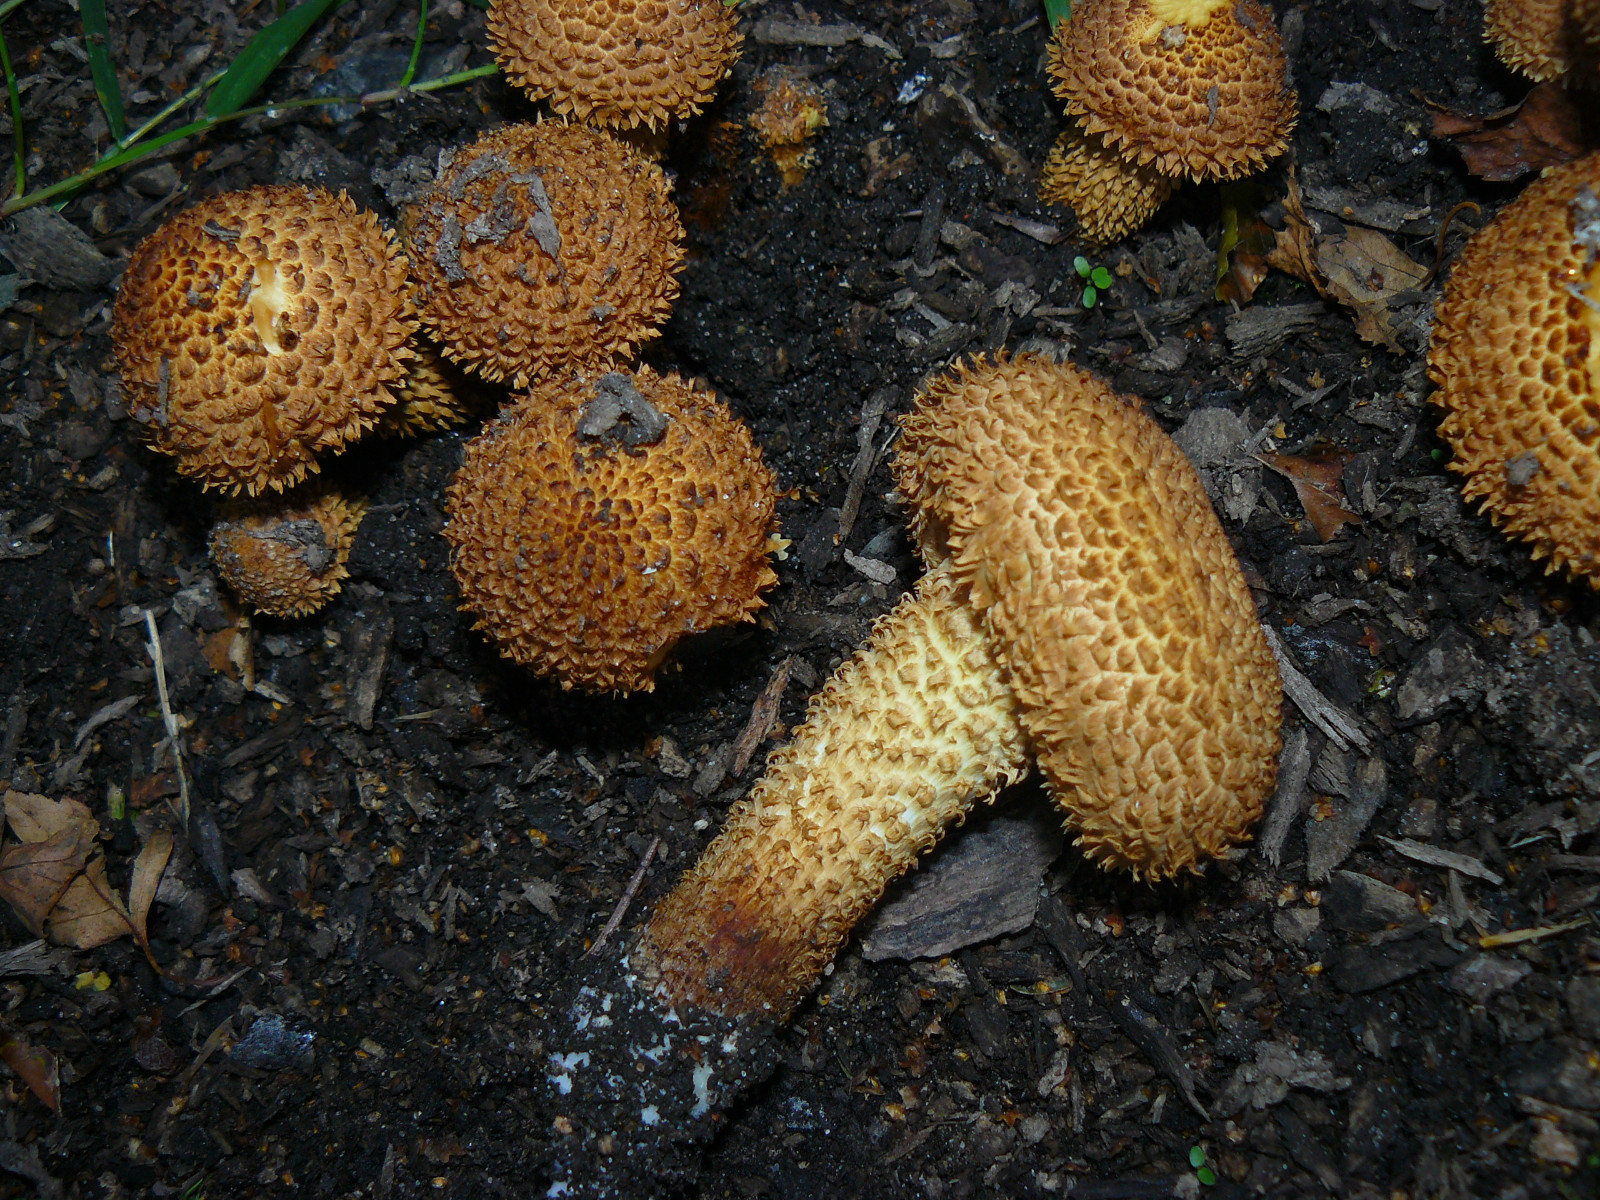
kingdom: Fungi
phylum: Basidiomycota
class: Agaricomycetes
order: Agaricales
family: Strophariaceae
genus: Pholiota
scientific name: Pholiota squarrosa
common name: krumskællet skælhat
